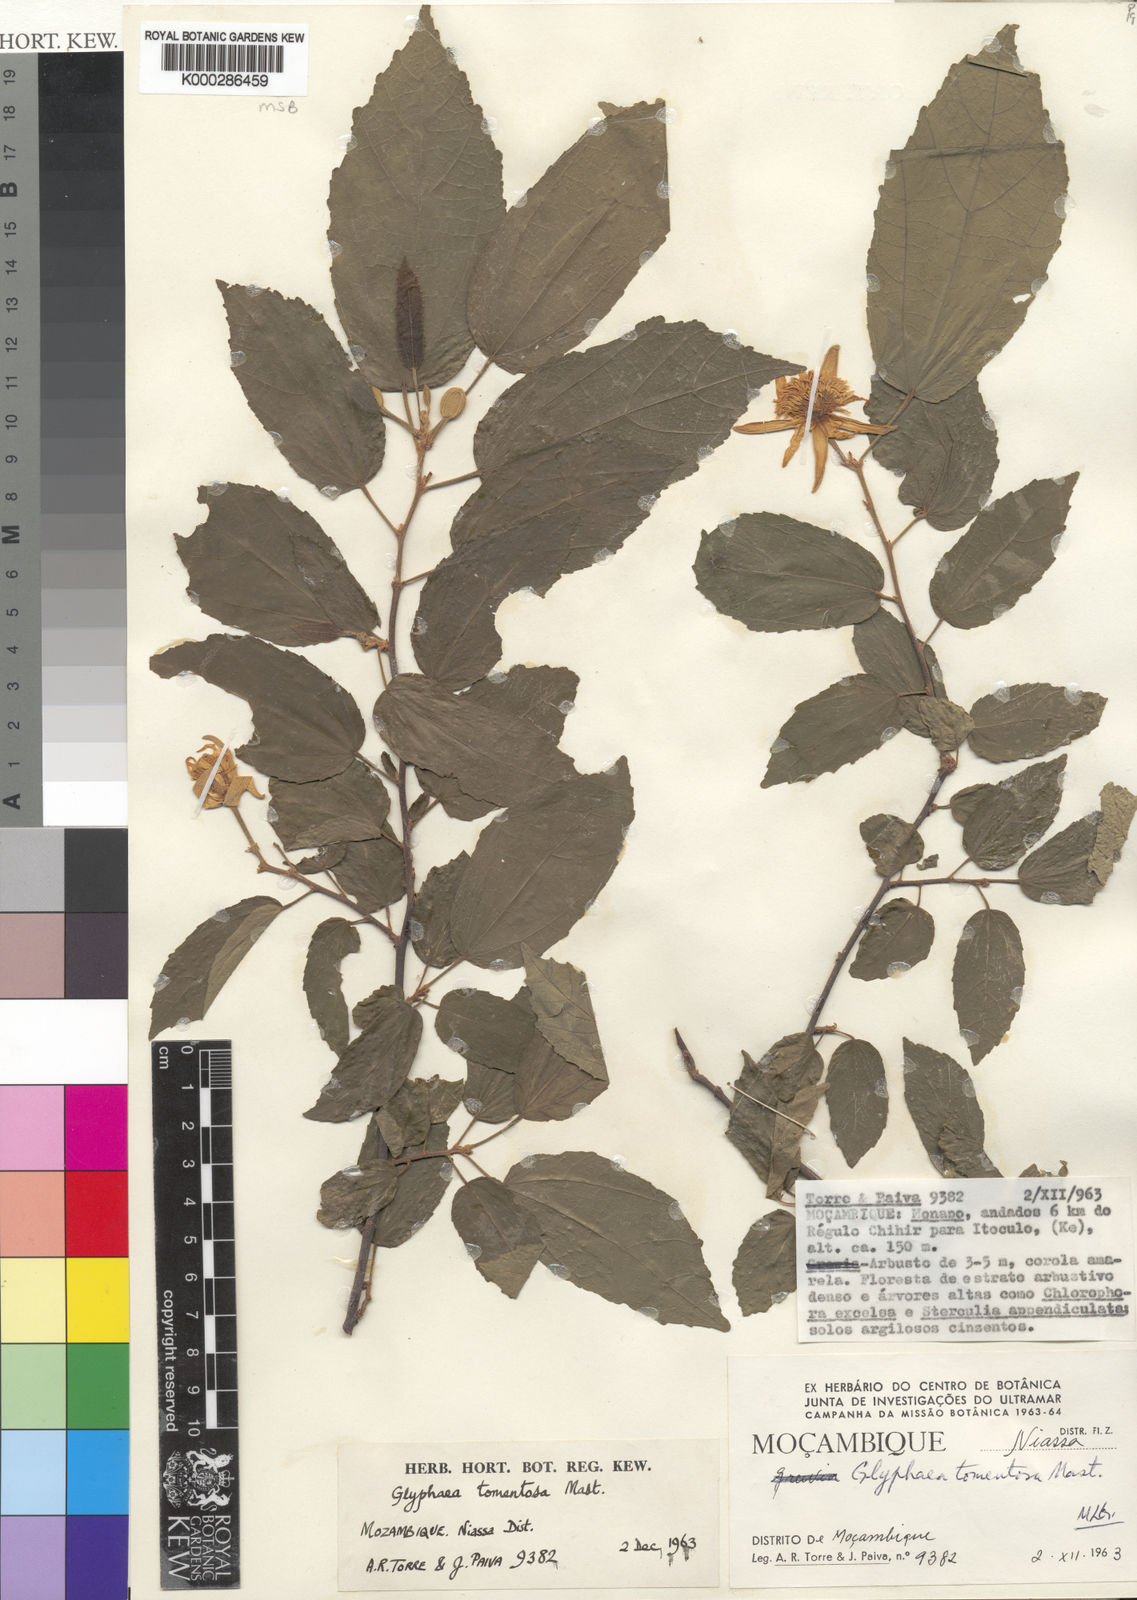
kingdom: Plantae
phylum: Tracheophyta
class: Magnoliopsida
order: Malvales
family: Malvaceae
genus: Glyphaea
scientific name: Glyphaea tomentosa
